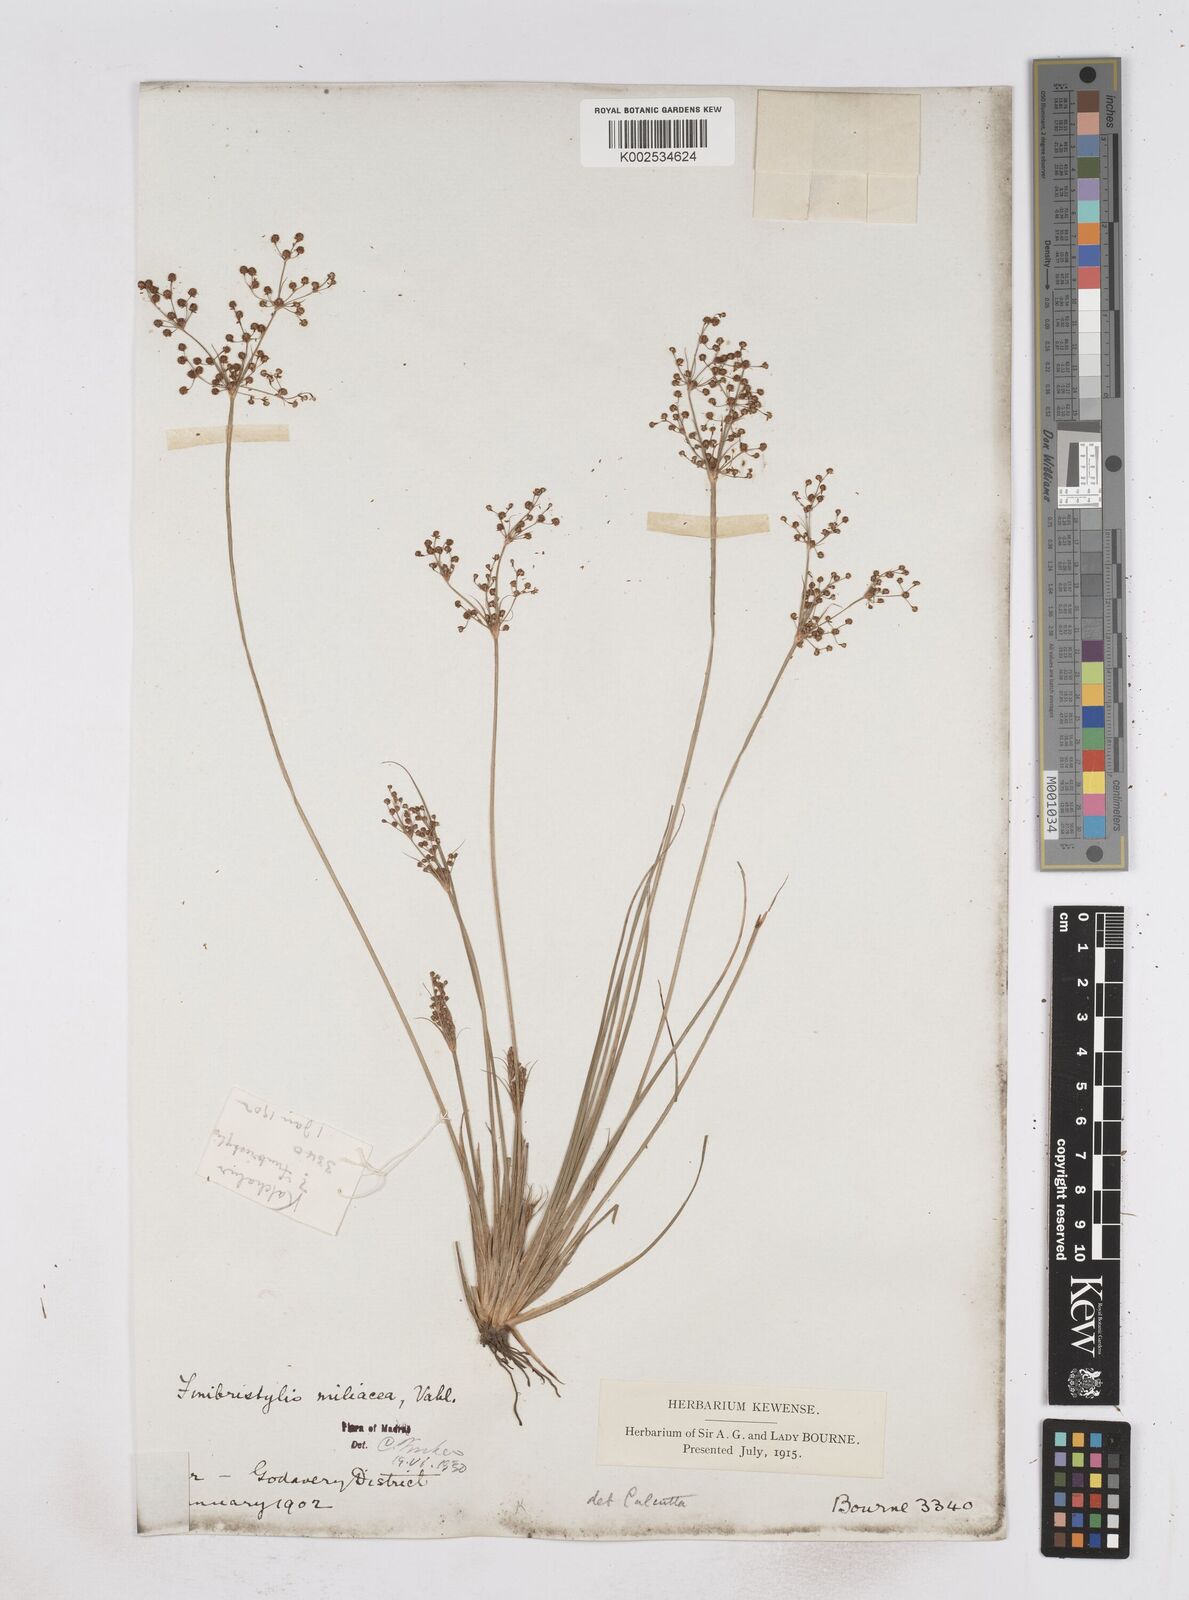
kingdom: Plantae
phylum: Tracheophyta
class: Liliopsida
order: Poales
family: Cyperaceae
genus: Fimbristylis
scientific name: Fimbristylis littoralis
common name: Fimbry
